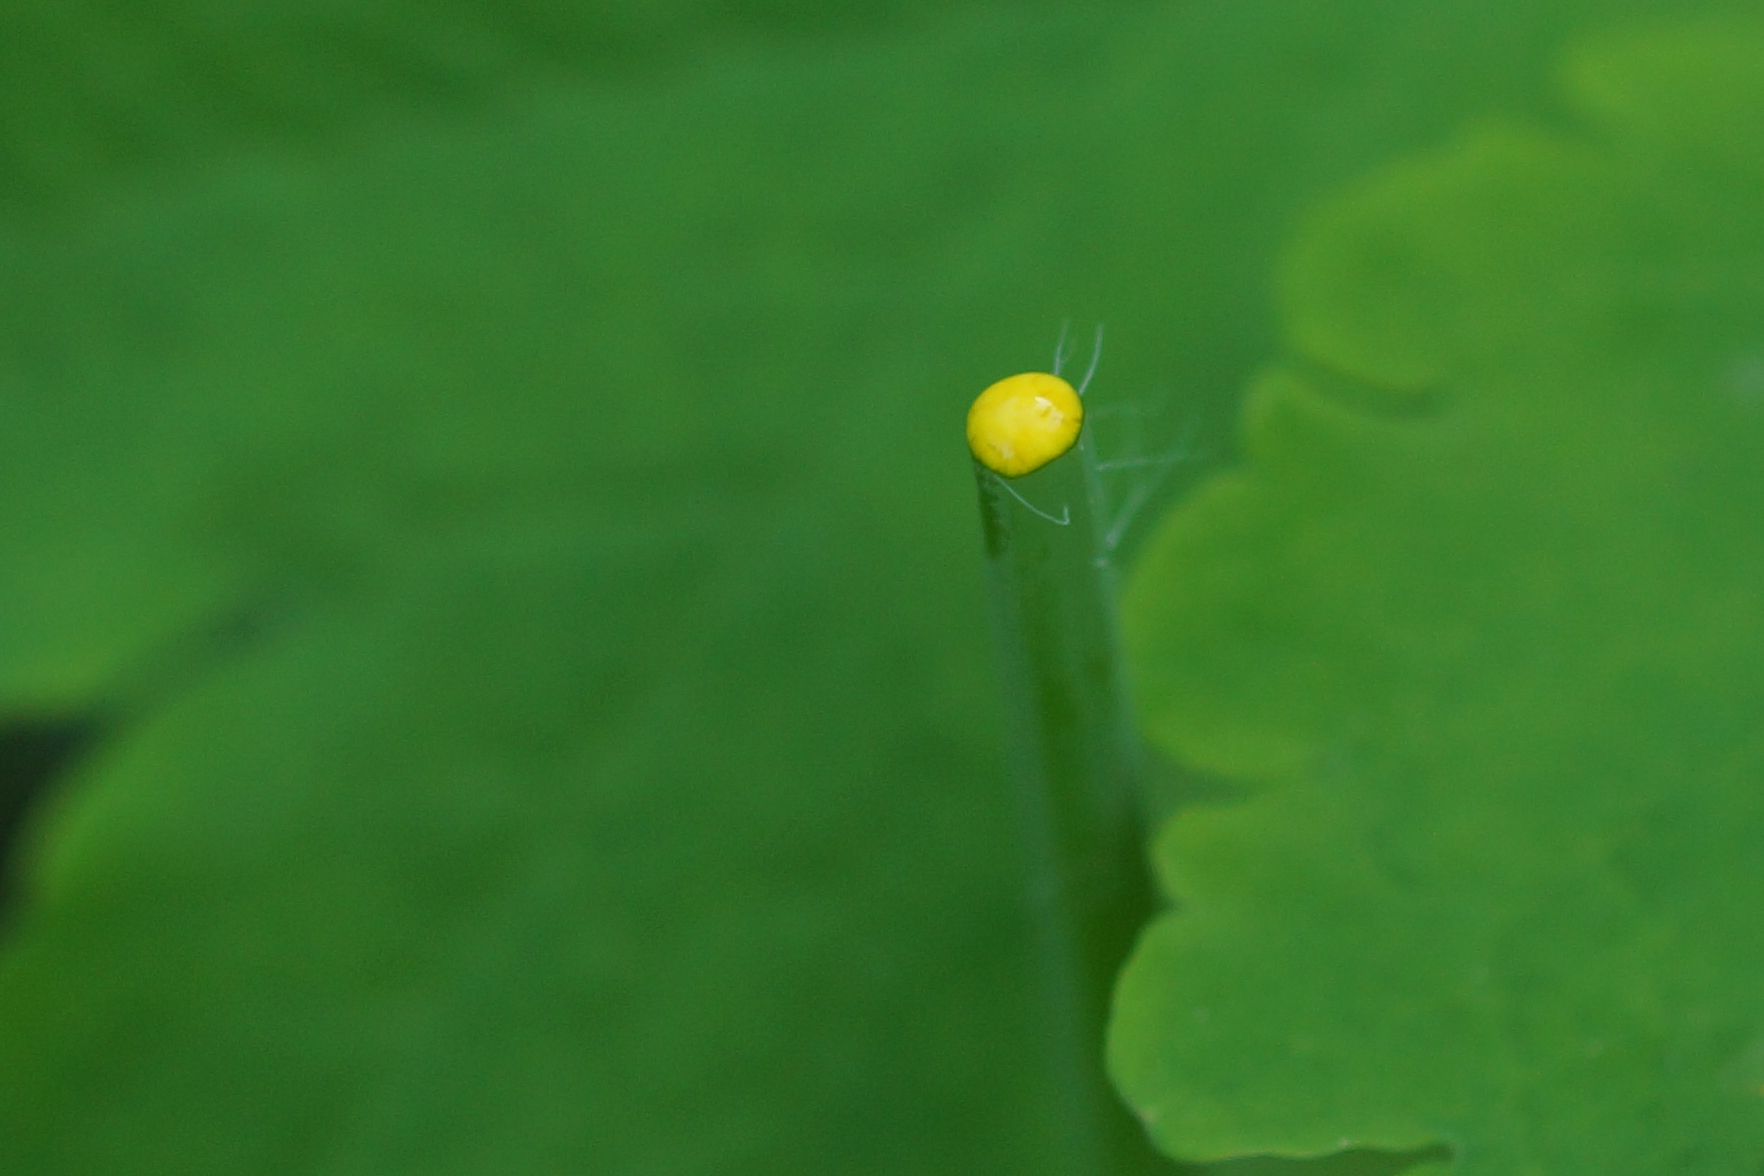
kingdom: Plantae
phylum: Tracheophyta
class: Magnoliopsida
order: Ranunculales
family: Papaveraceae
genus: Chelidonium
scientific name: Chelidonium majus
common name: Svaleurt
